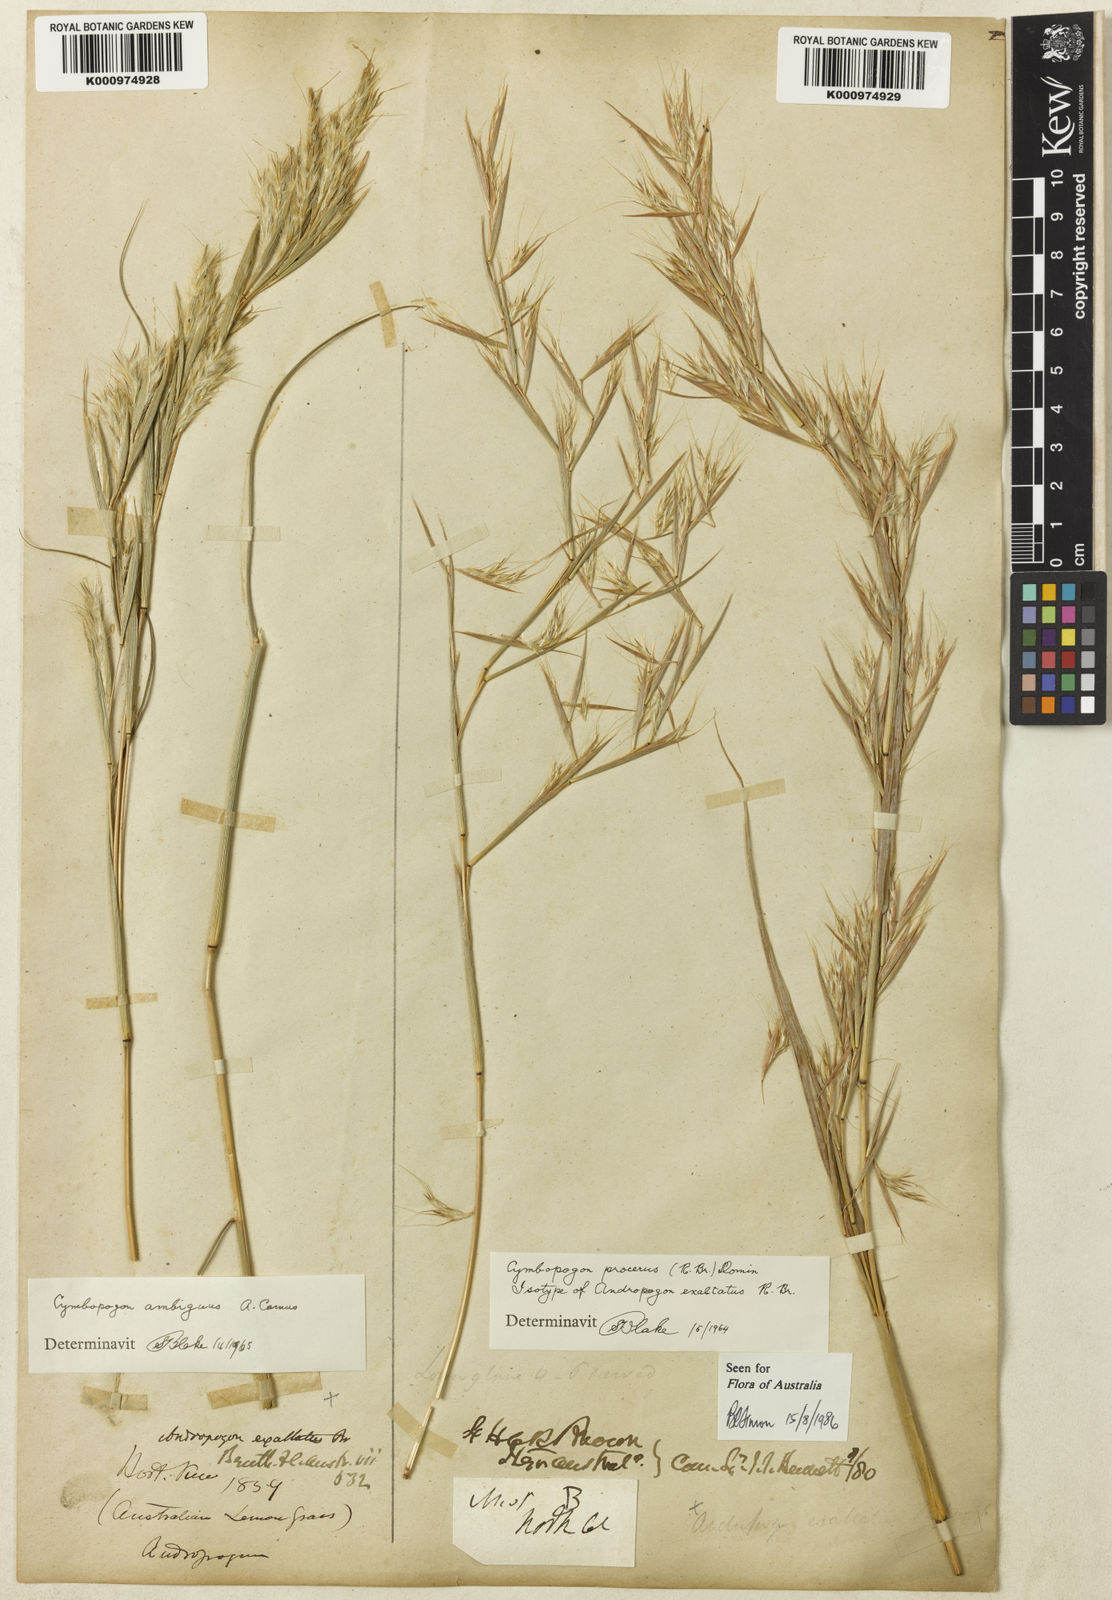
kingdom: Plantae
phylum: Tracheophyta
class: Liliopsida
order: Poales
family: Poaceae
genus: Cymbopogon
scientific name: Cymbopogon procerus
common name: Lemongrass
